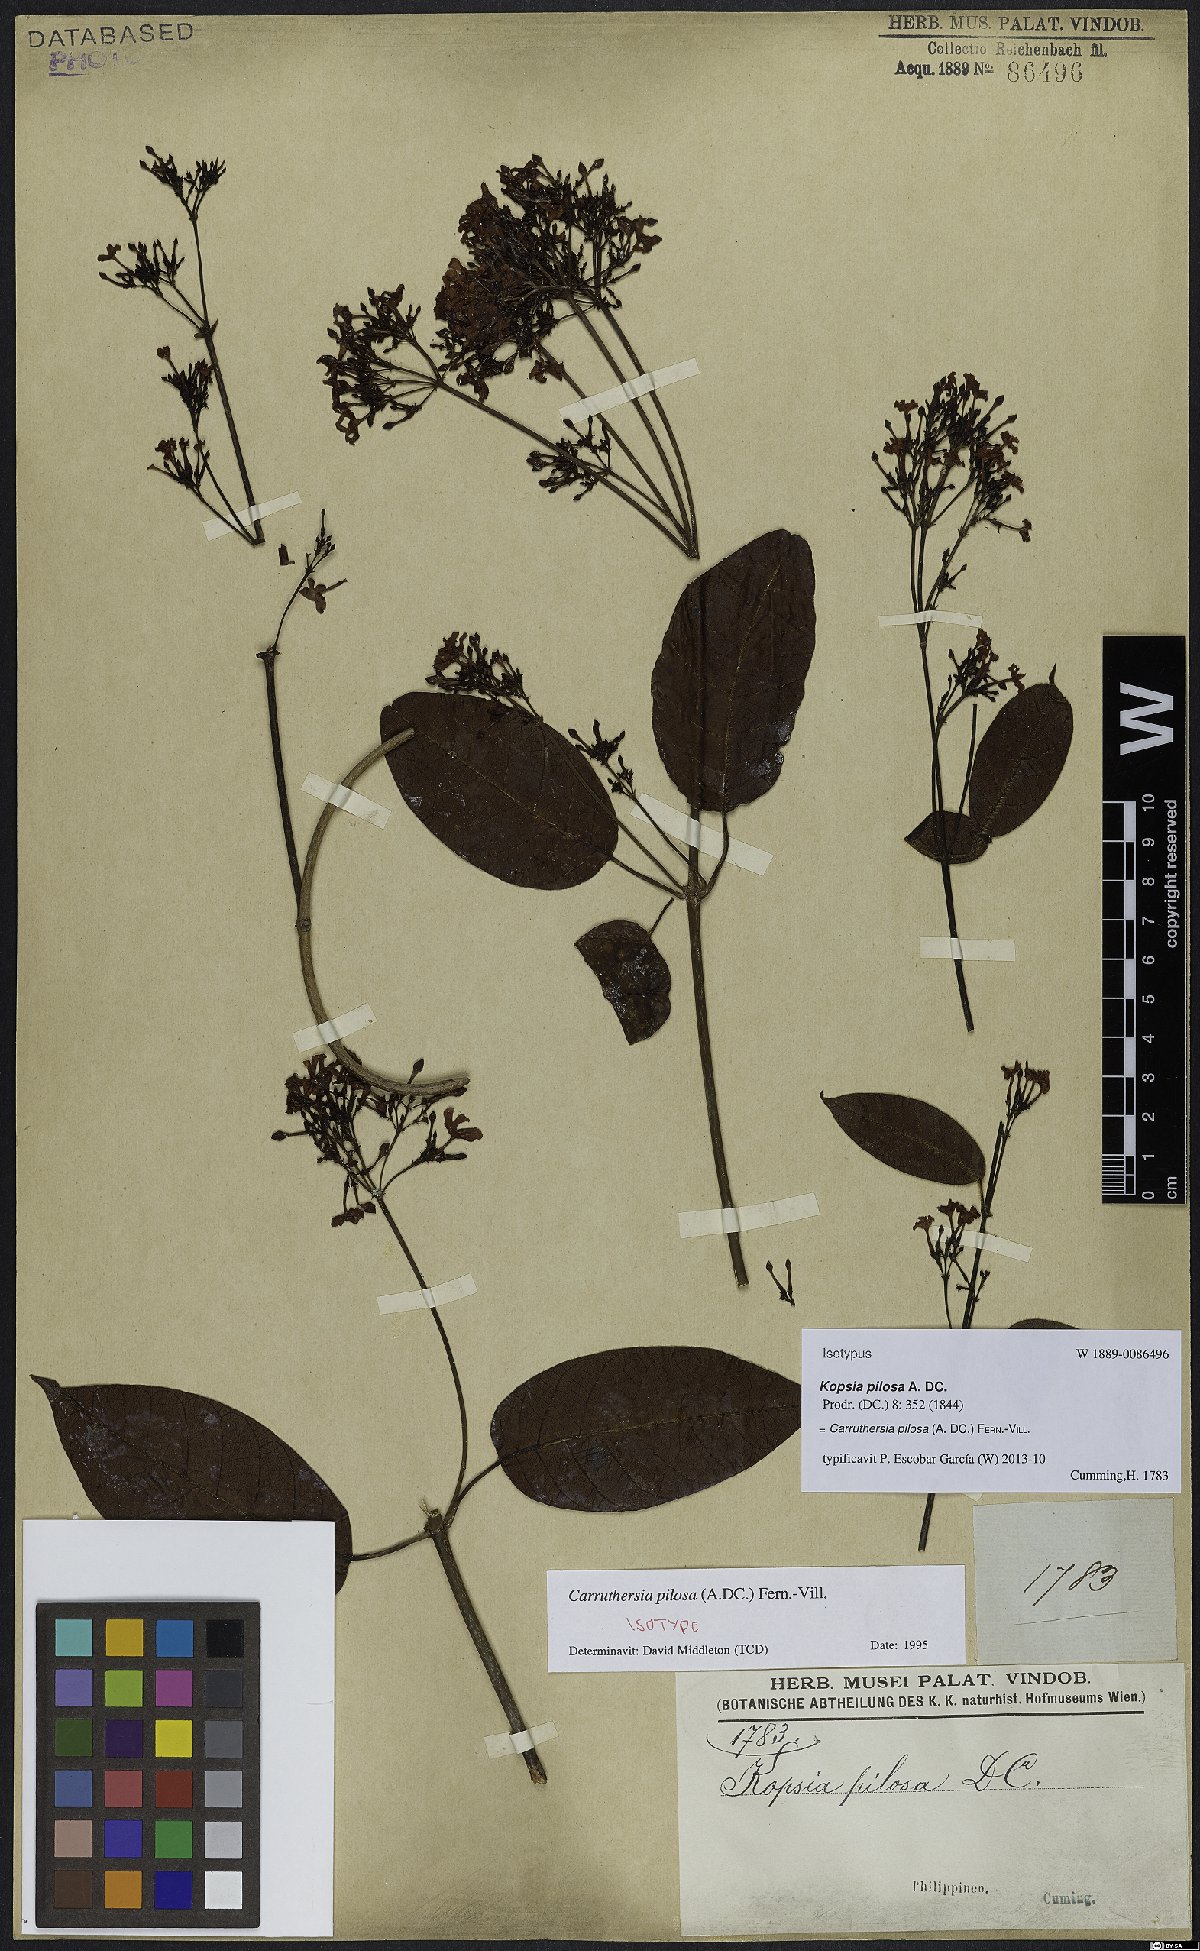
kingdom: Plantae
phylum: Tracheophyta
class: Magnoliopsida
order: Gentianales
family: Apocynaceae
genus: Carruthersia
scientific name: Carruthersia pilosa
